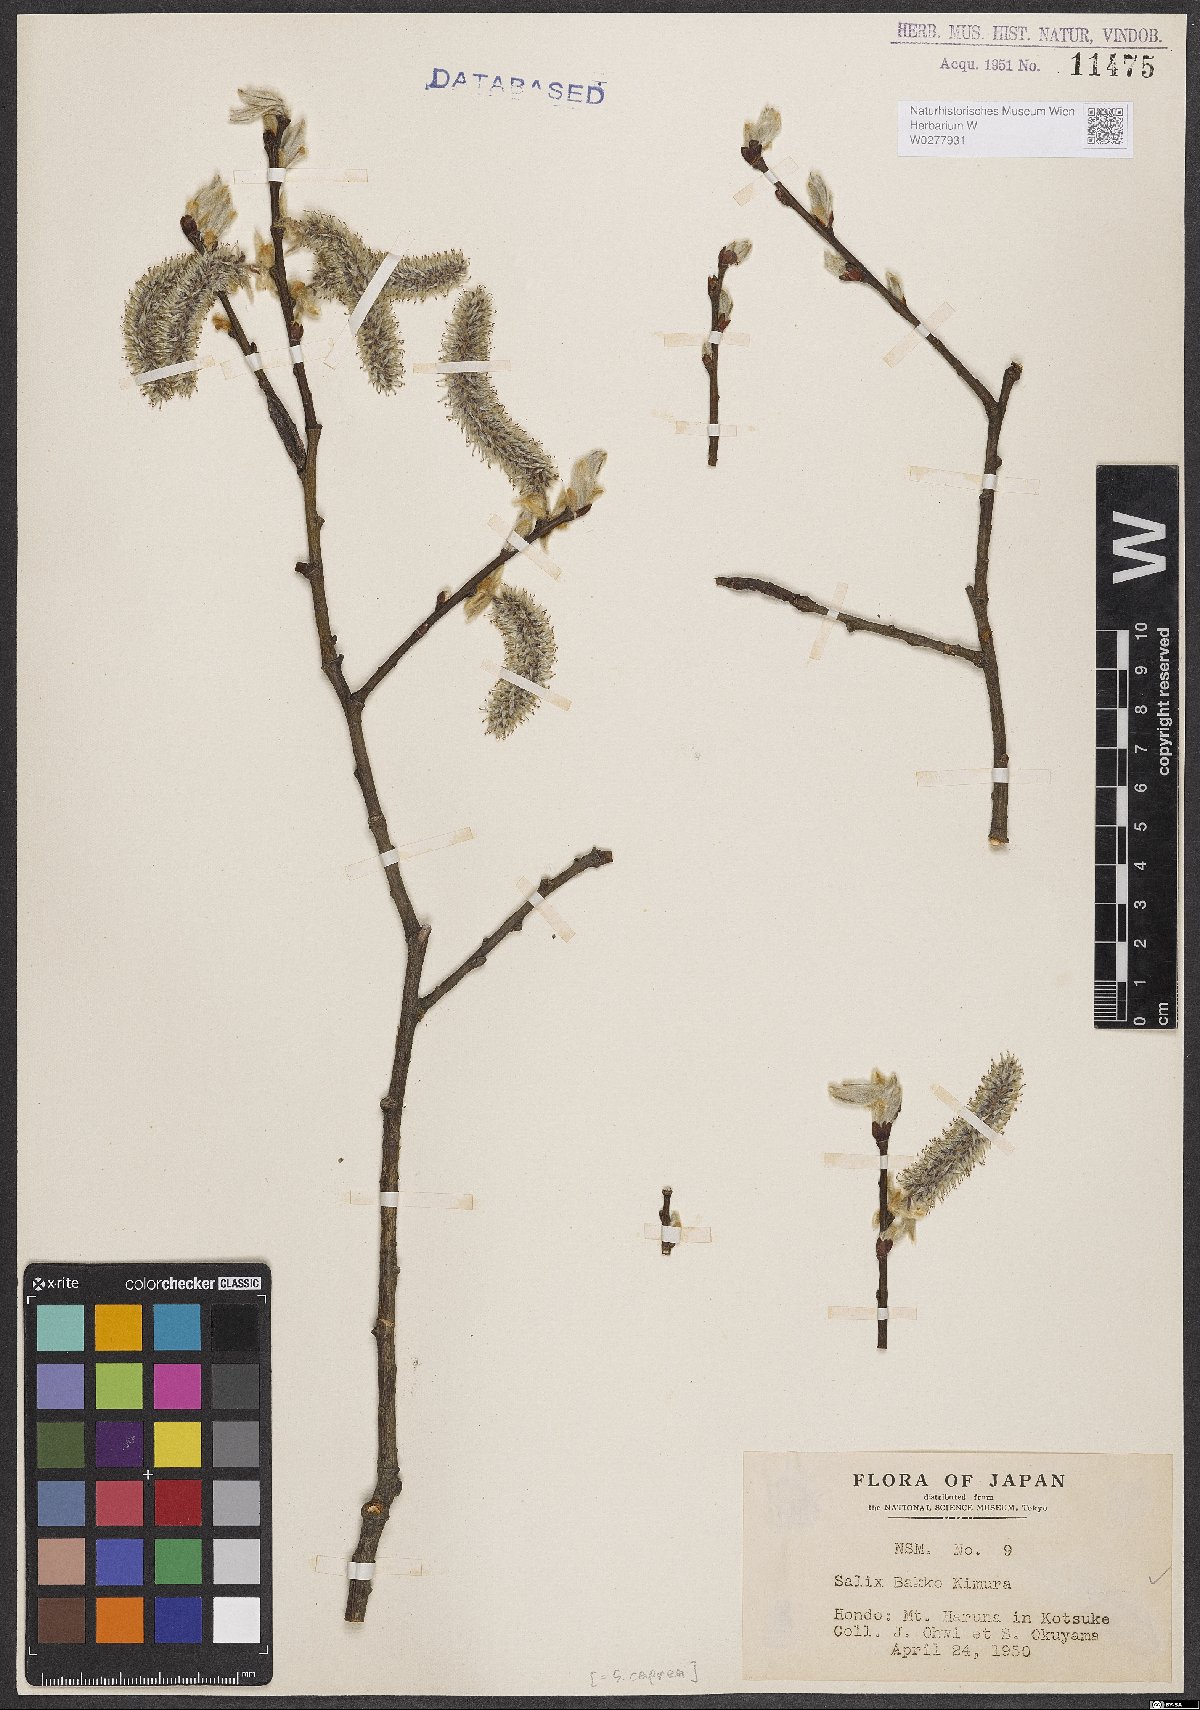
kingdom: Plantae
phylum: Tracheophyta
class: Magnoliopsida
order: Malpighiales
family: Salicaceae
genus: Salix
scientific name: Salix caprea
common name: Goat willow
